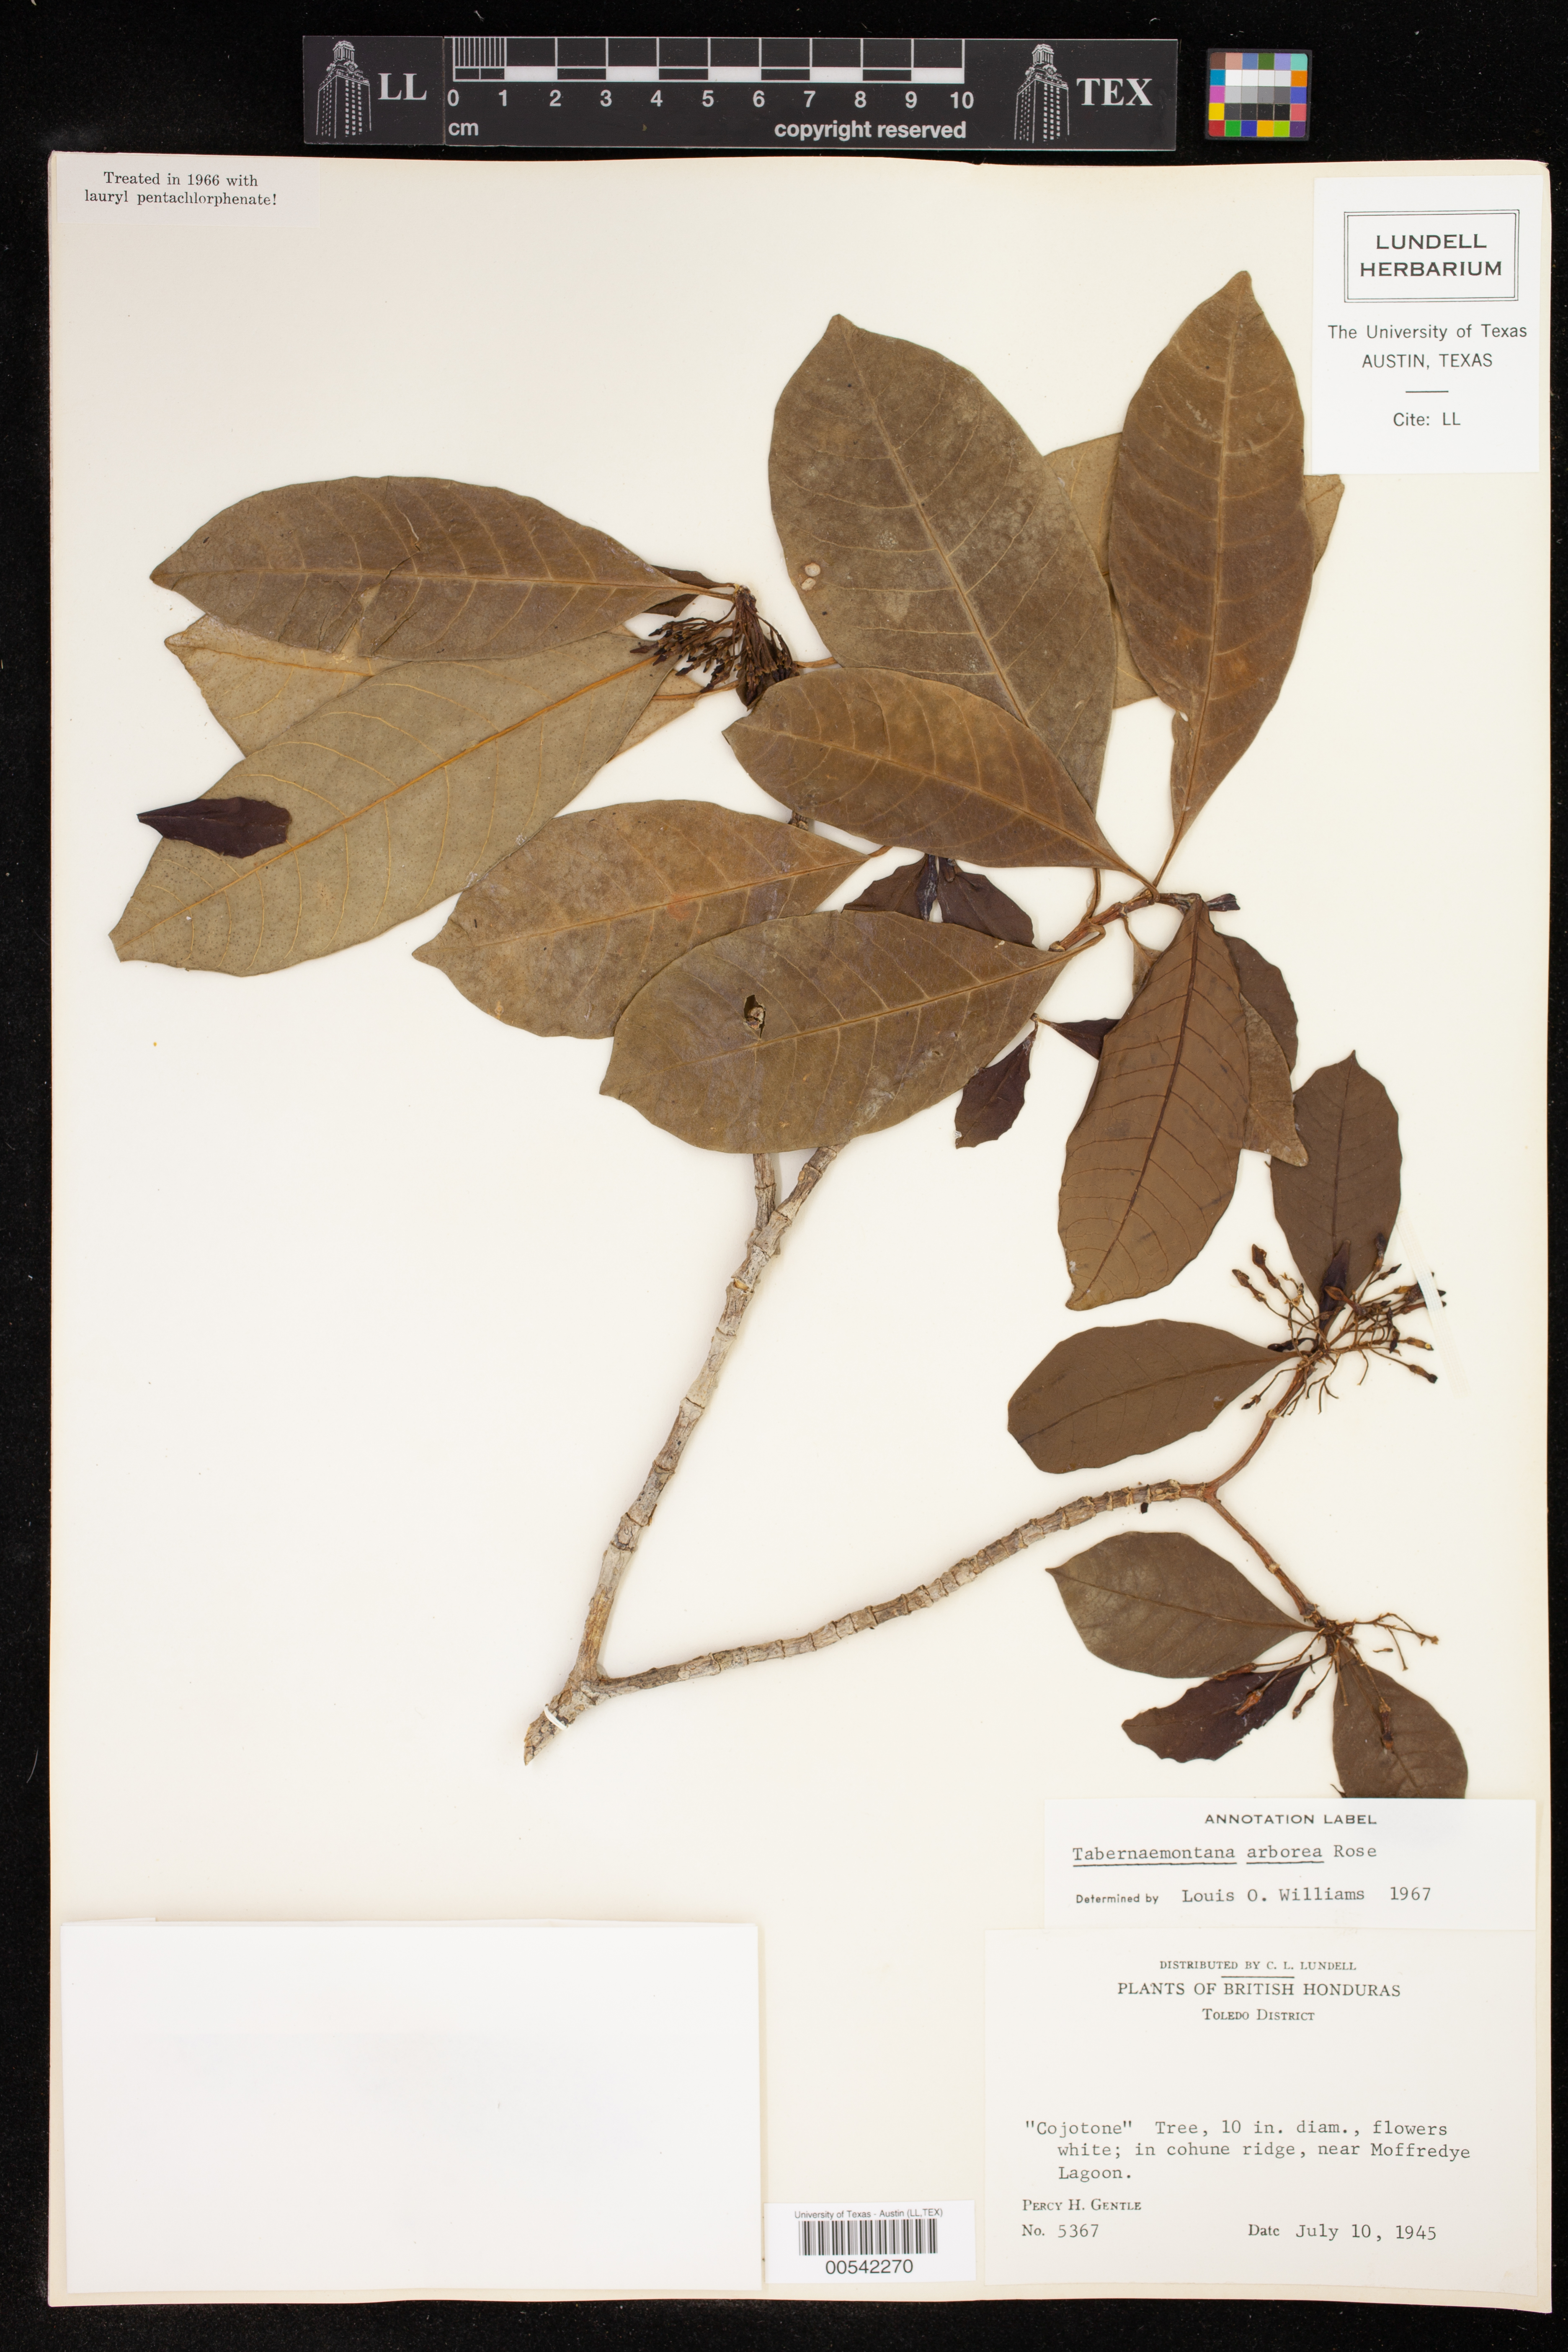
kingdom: Plantae
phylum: Tracheophyta
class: Magnoliopsida
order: Gentianales
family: Apocynaceae
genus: Tabernaemontana
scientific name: Tabernaemontana arborea
